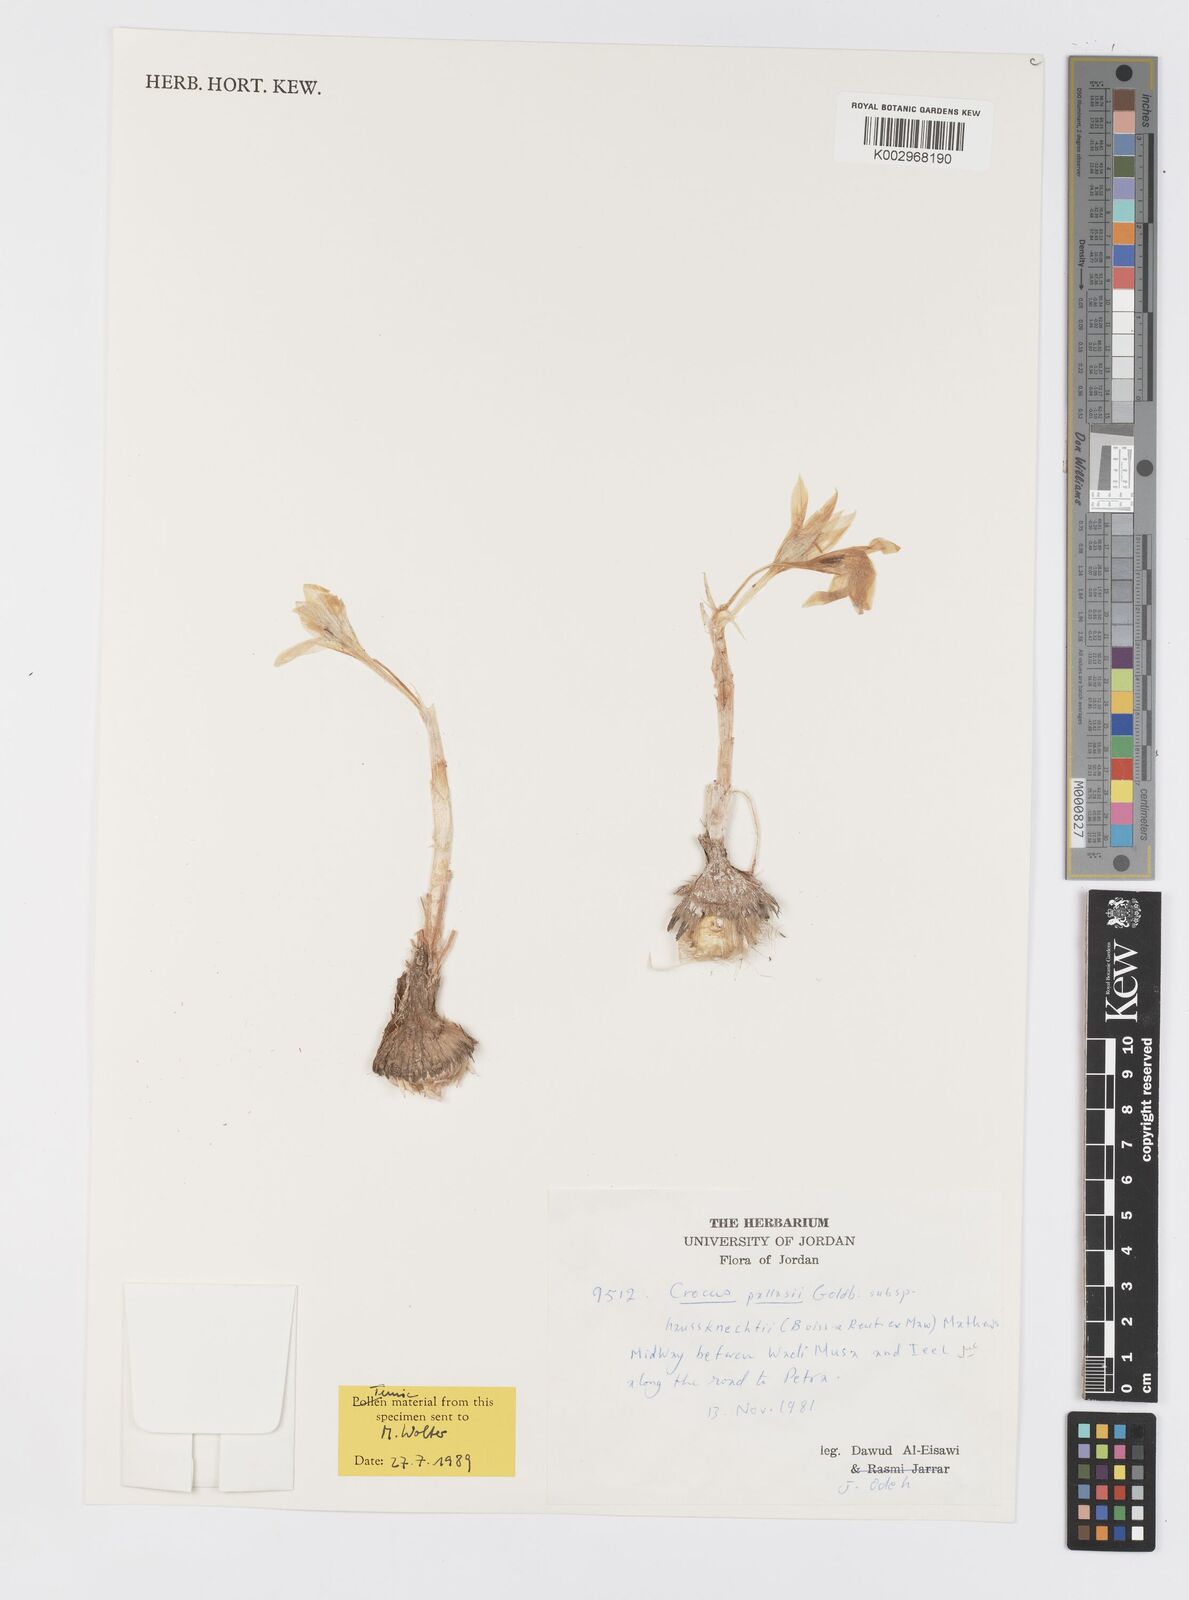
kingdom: Plantae
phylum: Tracheophyta
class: Liliopsida
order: Asparagales
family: Iridaceae
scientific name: Iridaceae
